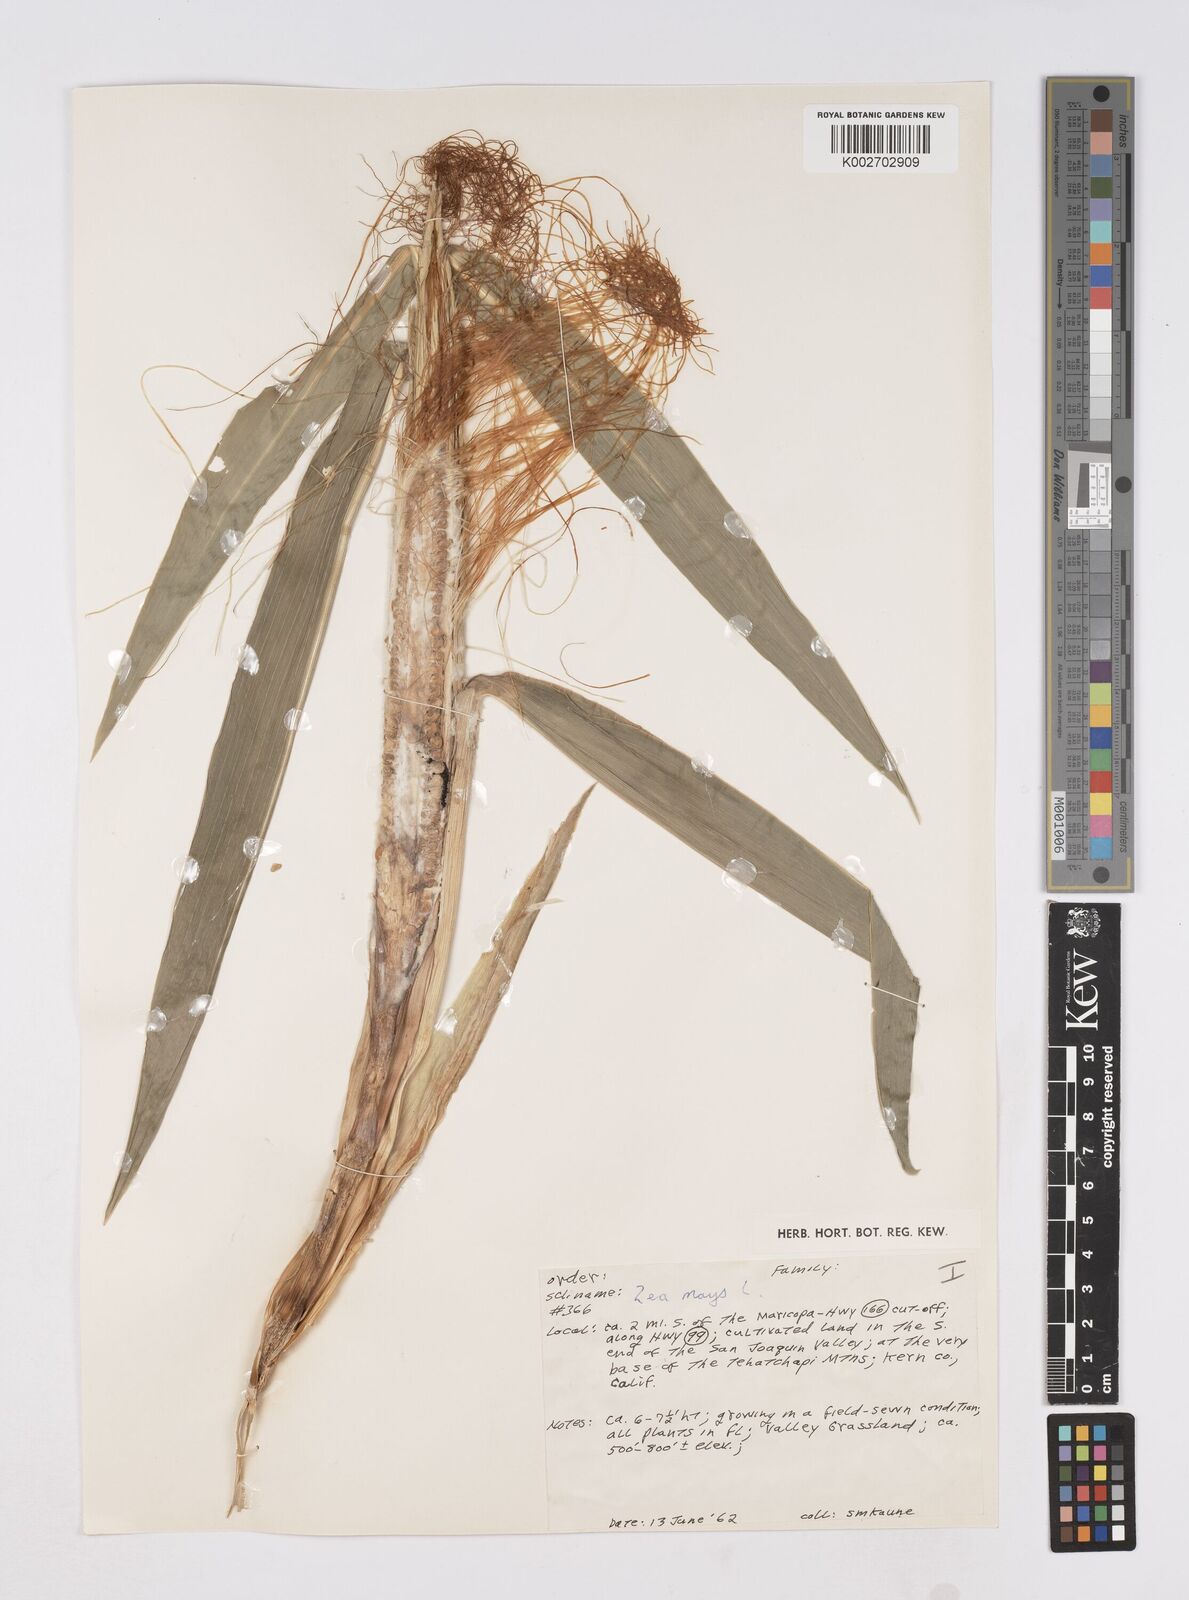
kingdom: Plantae
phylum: Tracheophyta
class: Liliopsida
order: Poales
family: Poaceae
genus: Zea
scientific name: Zea mays
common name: Maize
